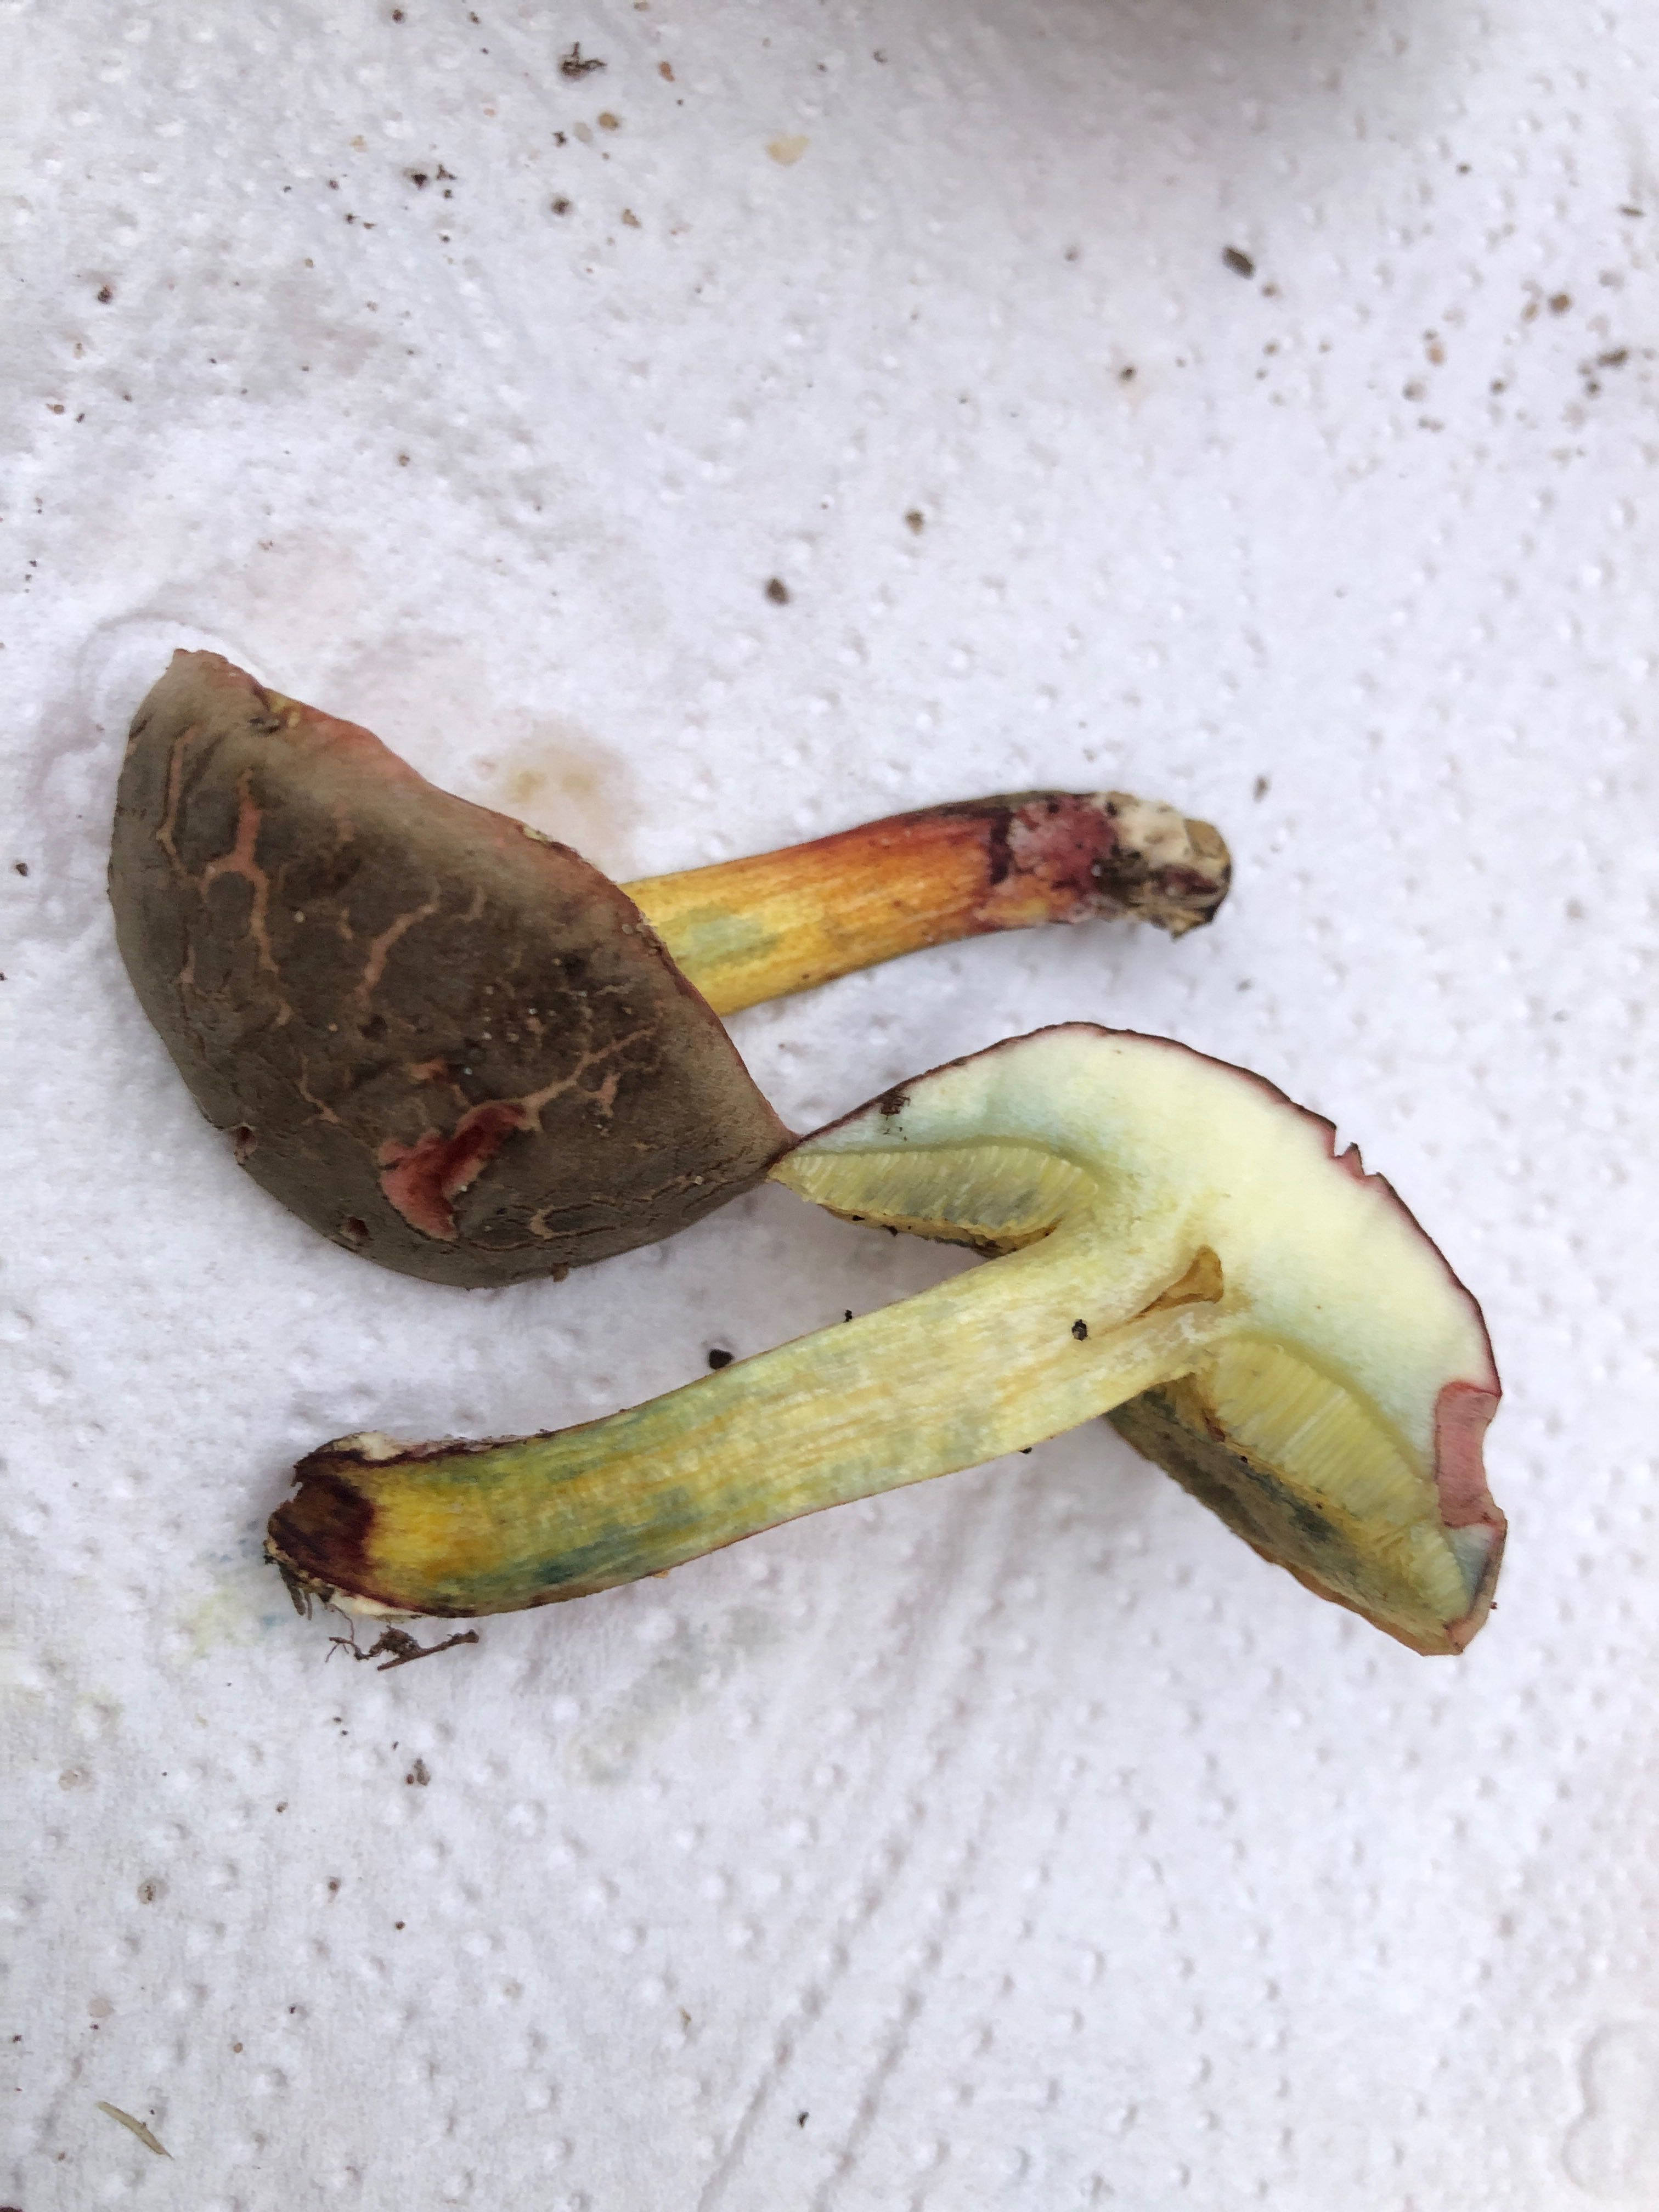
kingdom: Fungi
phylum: Basidiomycota
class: Agaricomycetes
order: Boletales
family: Boletaceae
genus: Xerocomellus
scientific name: Xerocomellus cisalpinus
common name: finsprukken rørhat
